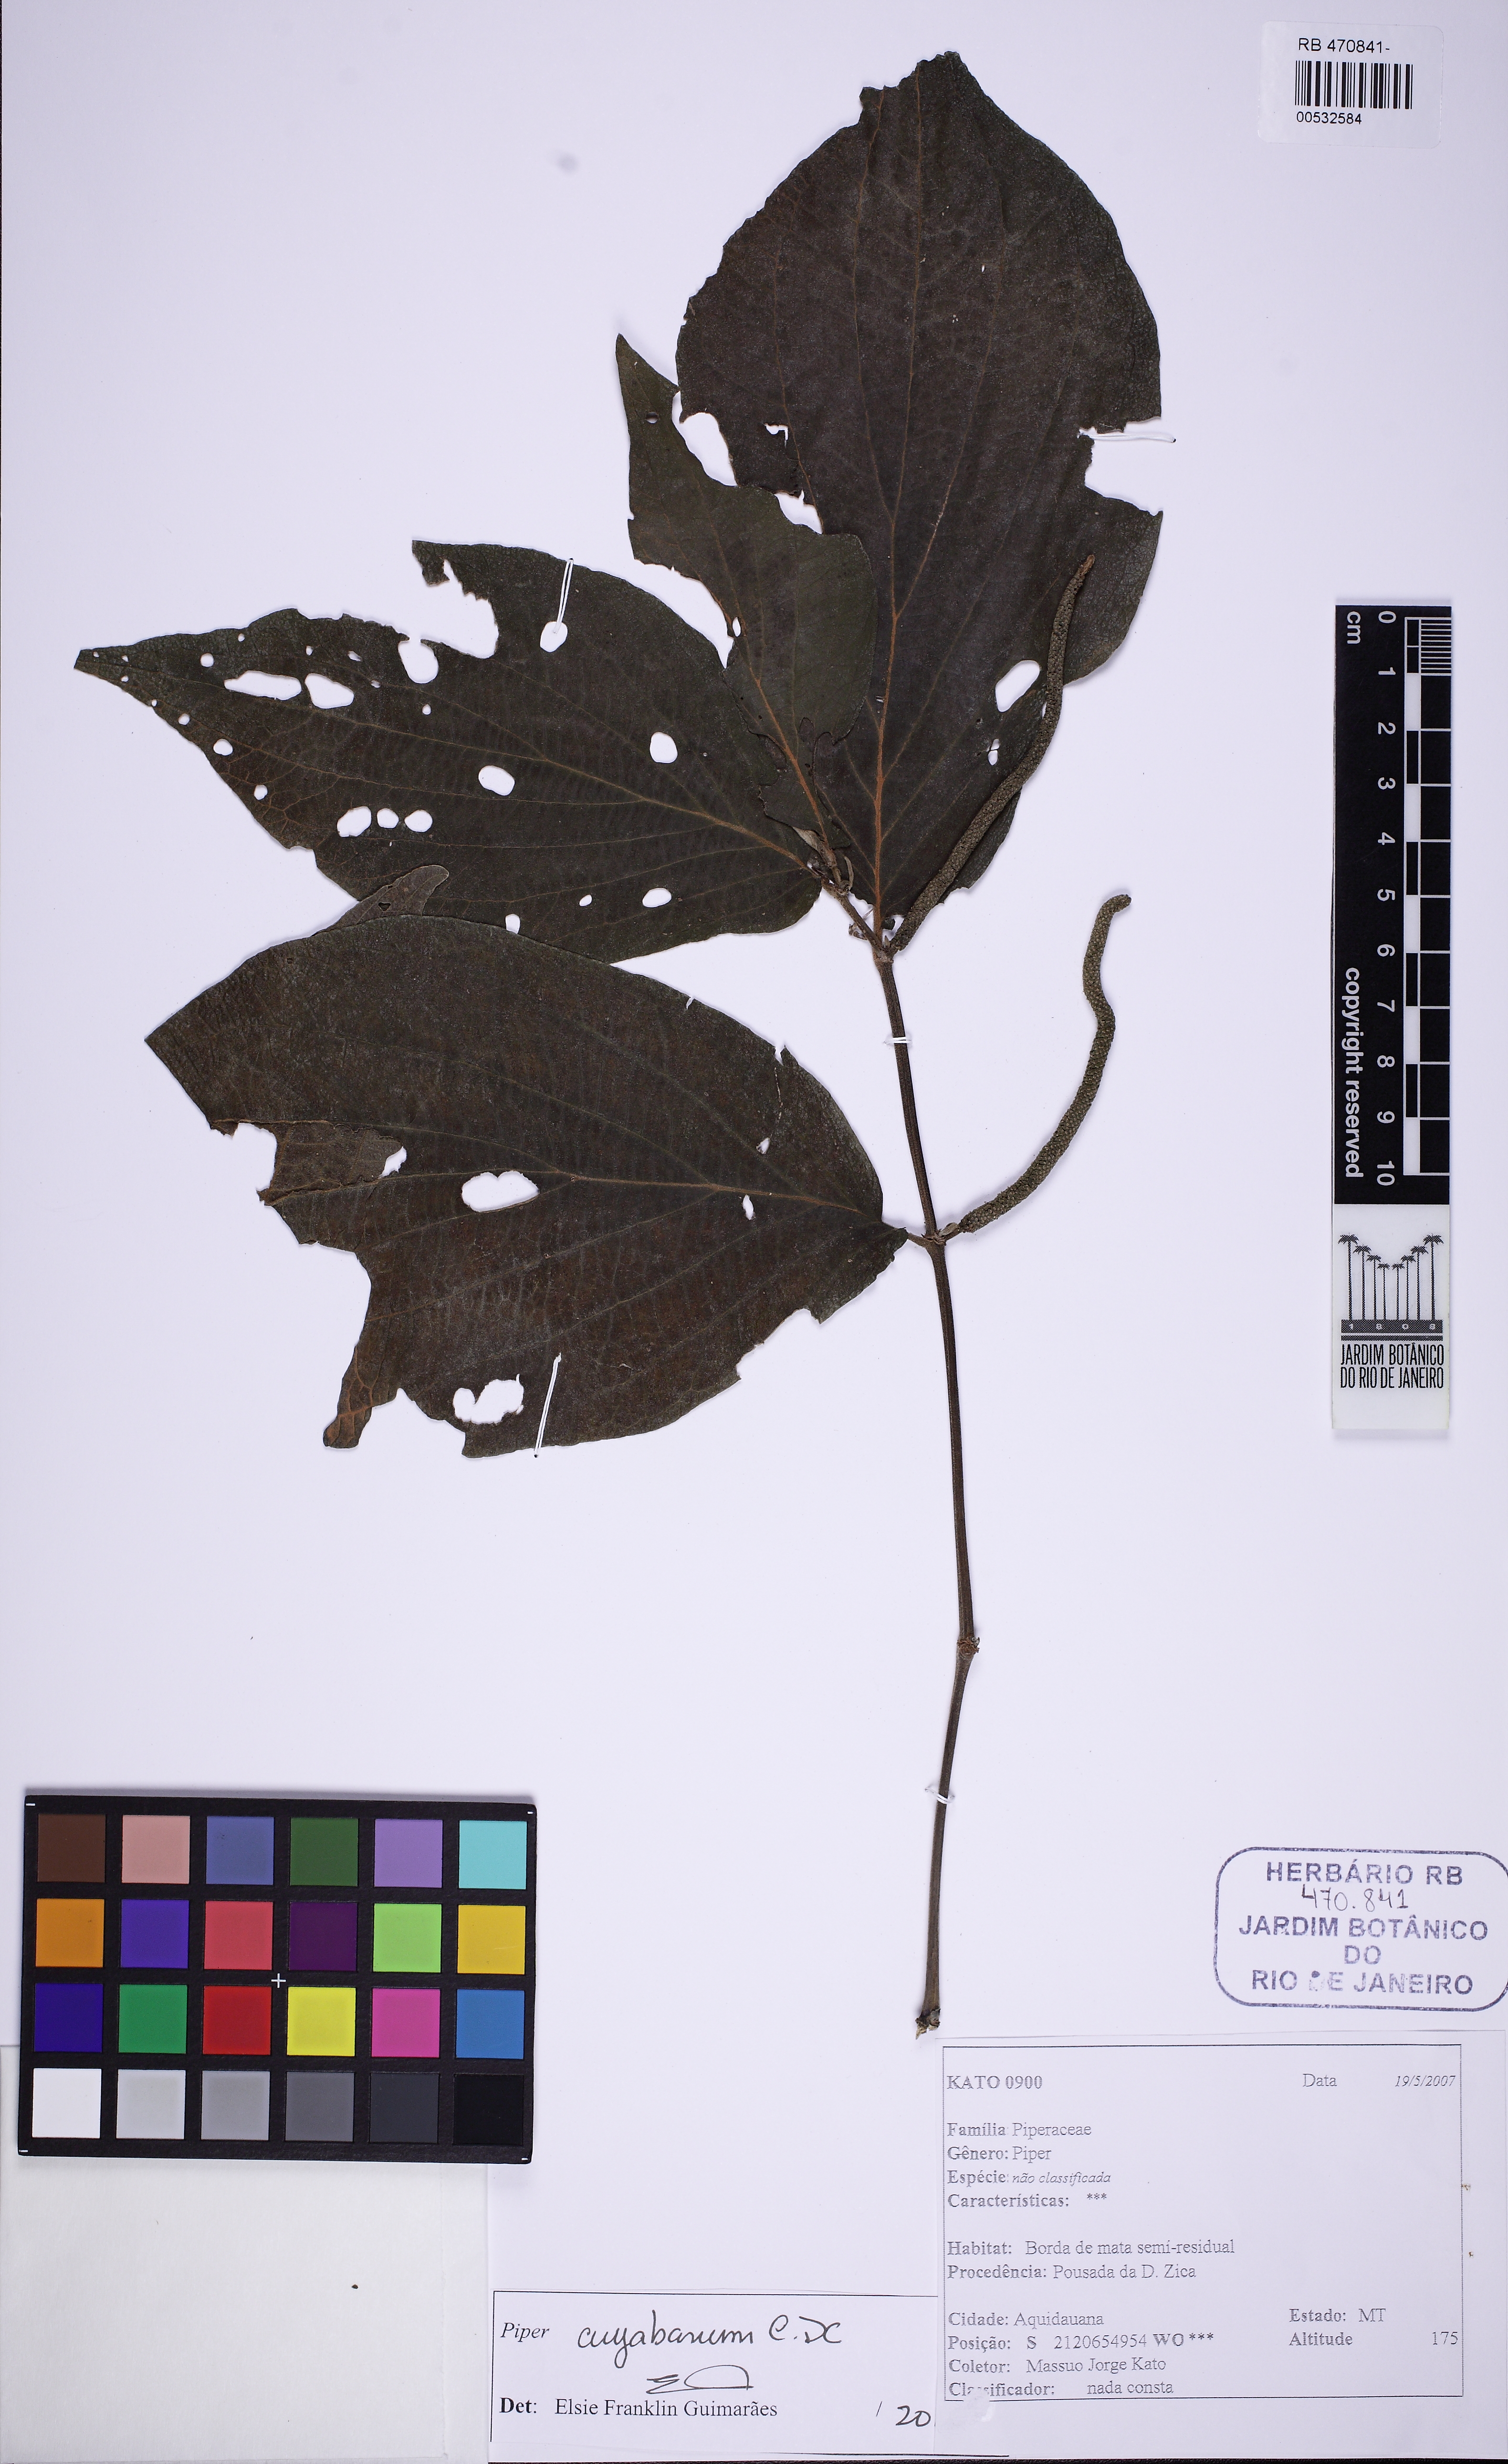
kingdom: Plantae
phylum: Tracheophyta
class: Magnoliopsida
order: Piperales
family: Piperaceae
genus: Piper
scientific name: Piper cuyabanum
